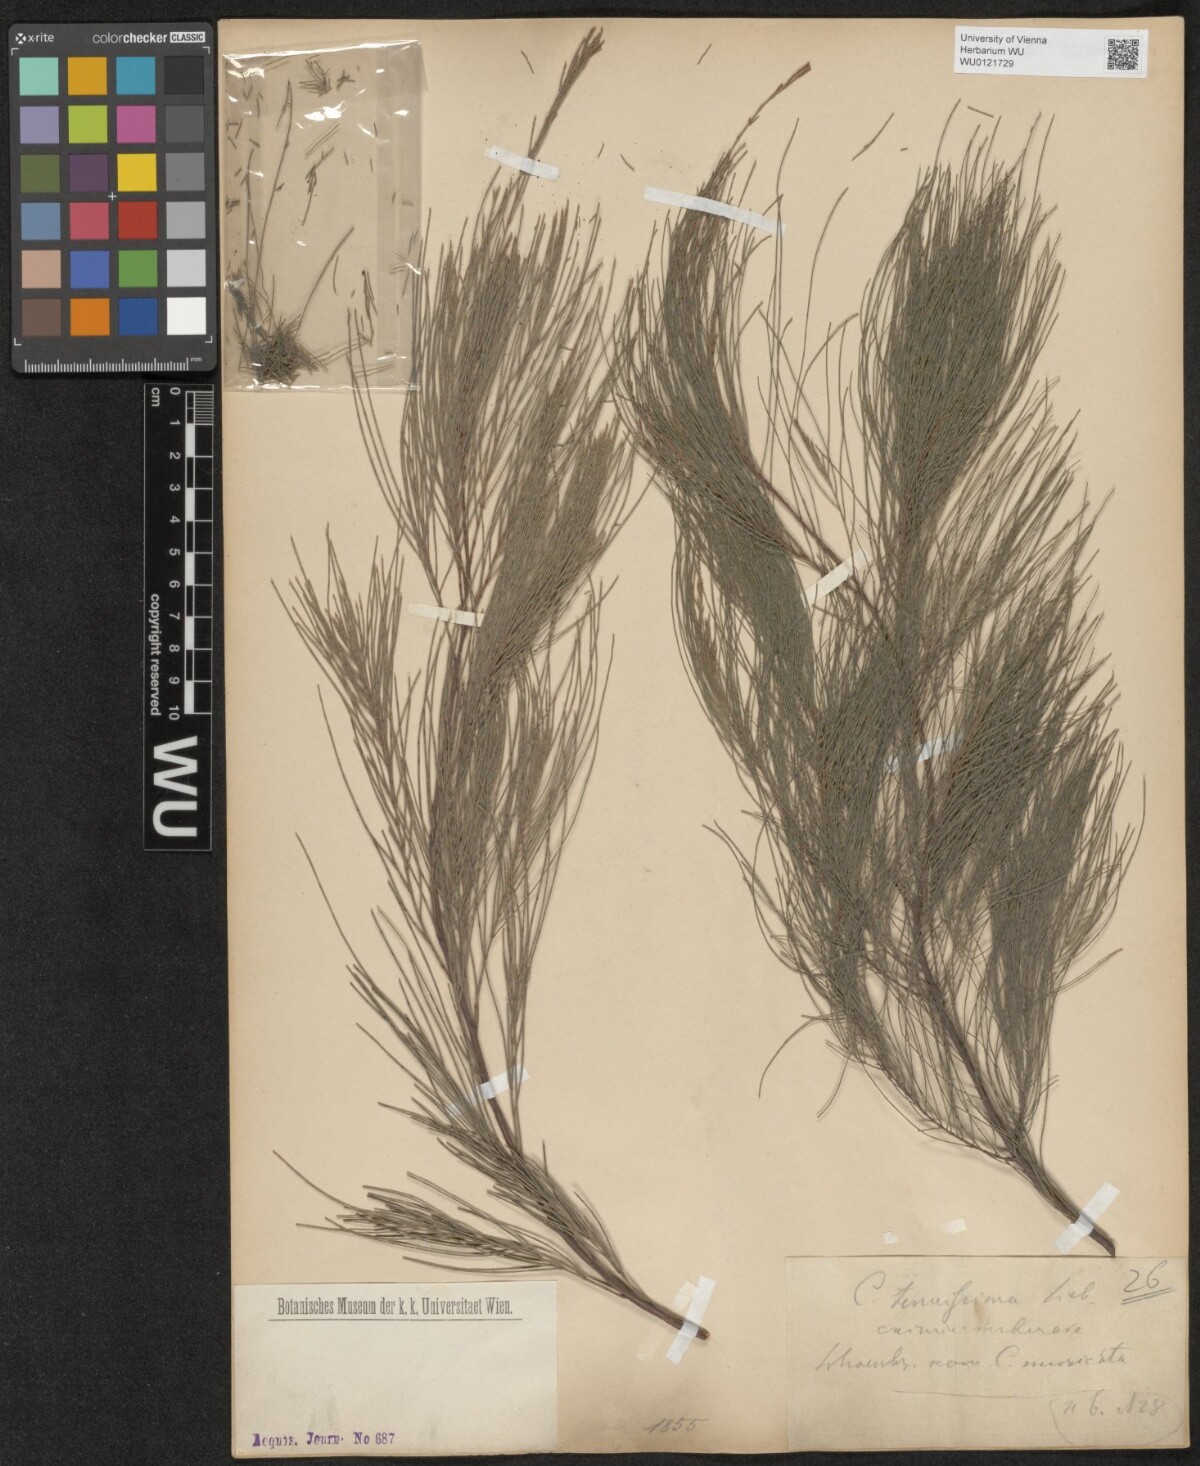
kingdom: Plantae
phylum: Tracheophyta
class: Magnoliopsida
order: Fagales
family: Casuarinaceae
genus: Allocasuarina
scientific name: Allocasuarina torulosa
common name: Forest-oak
